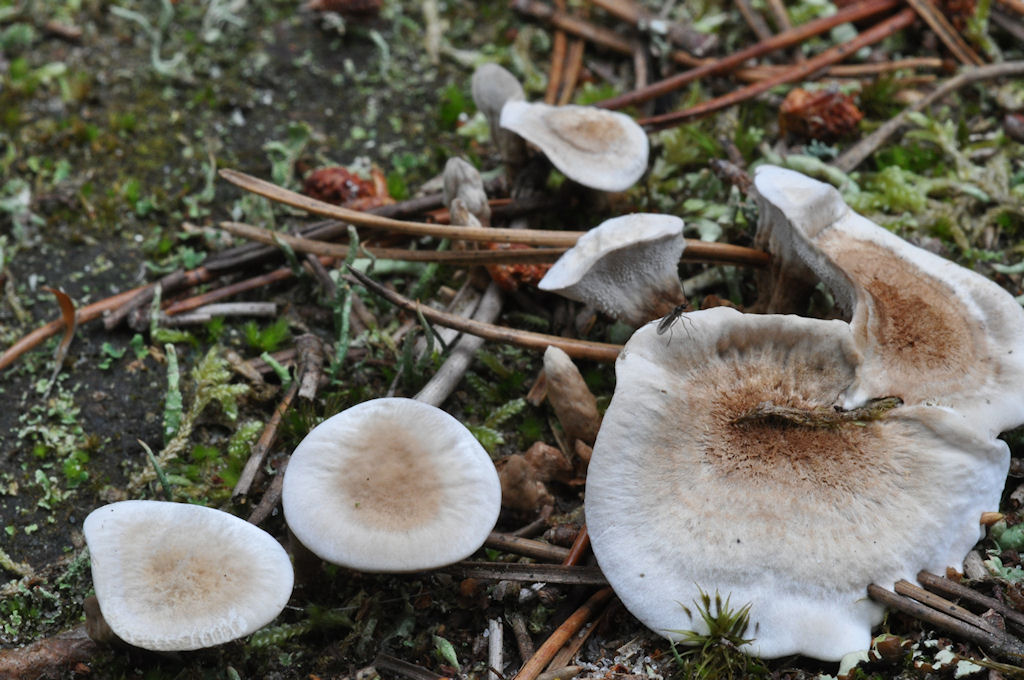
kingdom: Fungi
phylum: Basidiomycota
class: Agaricomycetes
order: Thelephorales
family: Thelephoraceae
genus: Phellodon
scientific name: Phellodon tomentosus
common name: tragtformet duftpigsvamp
